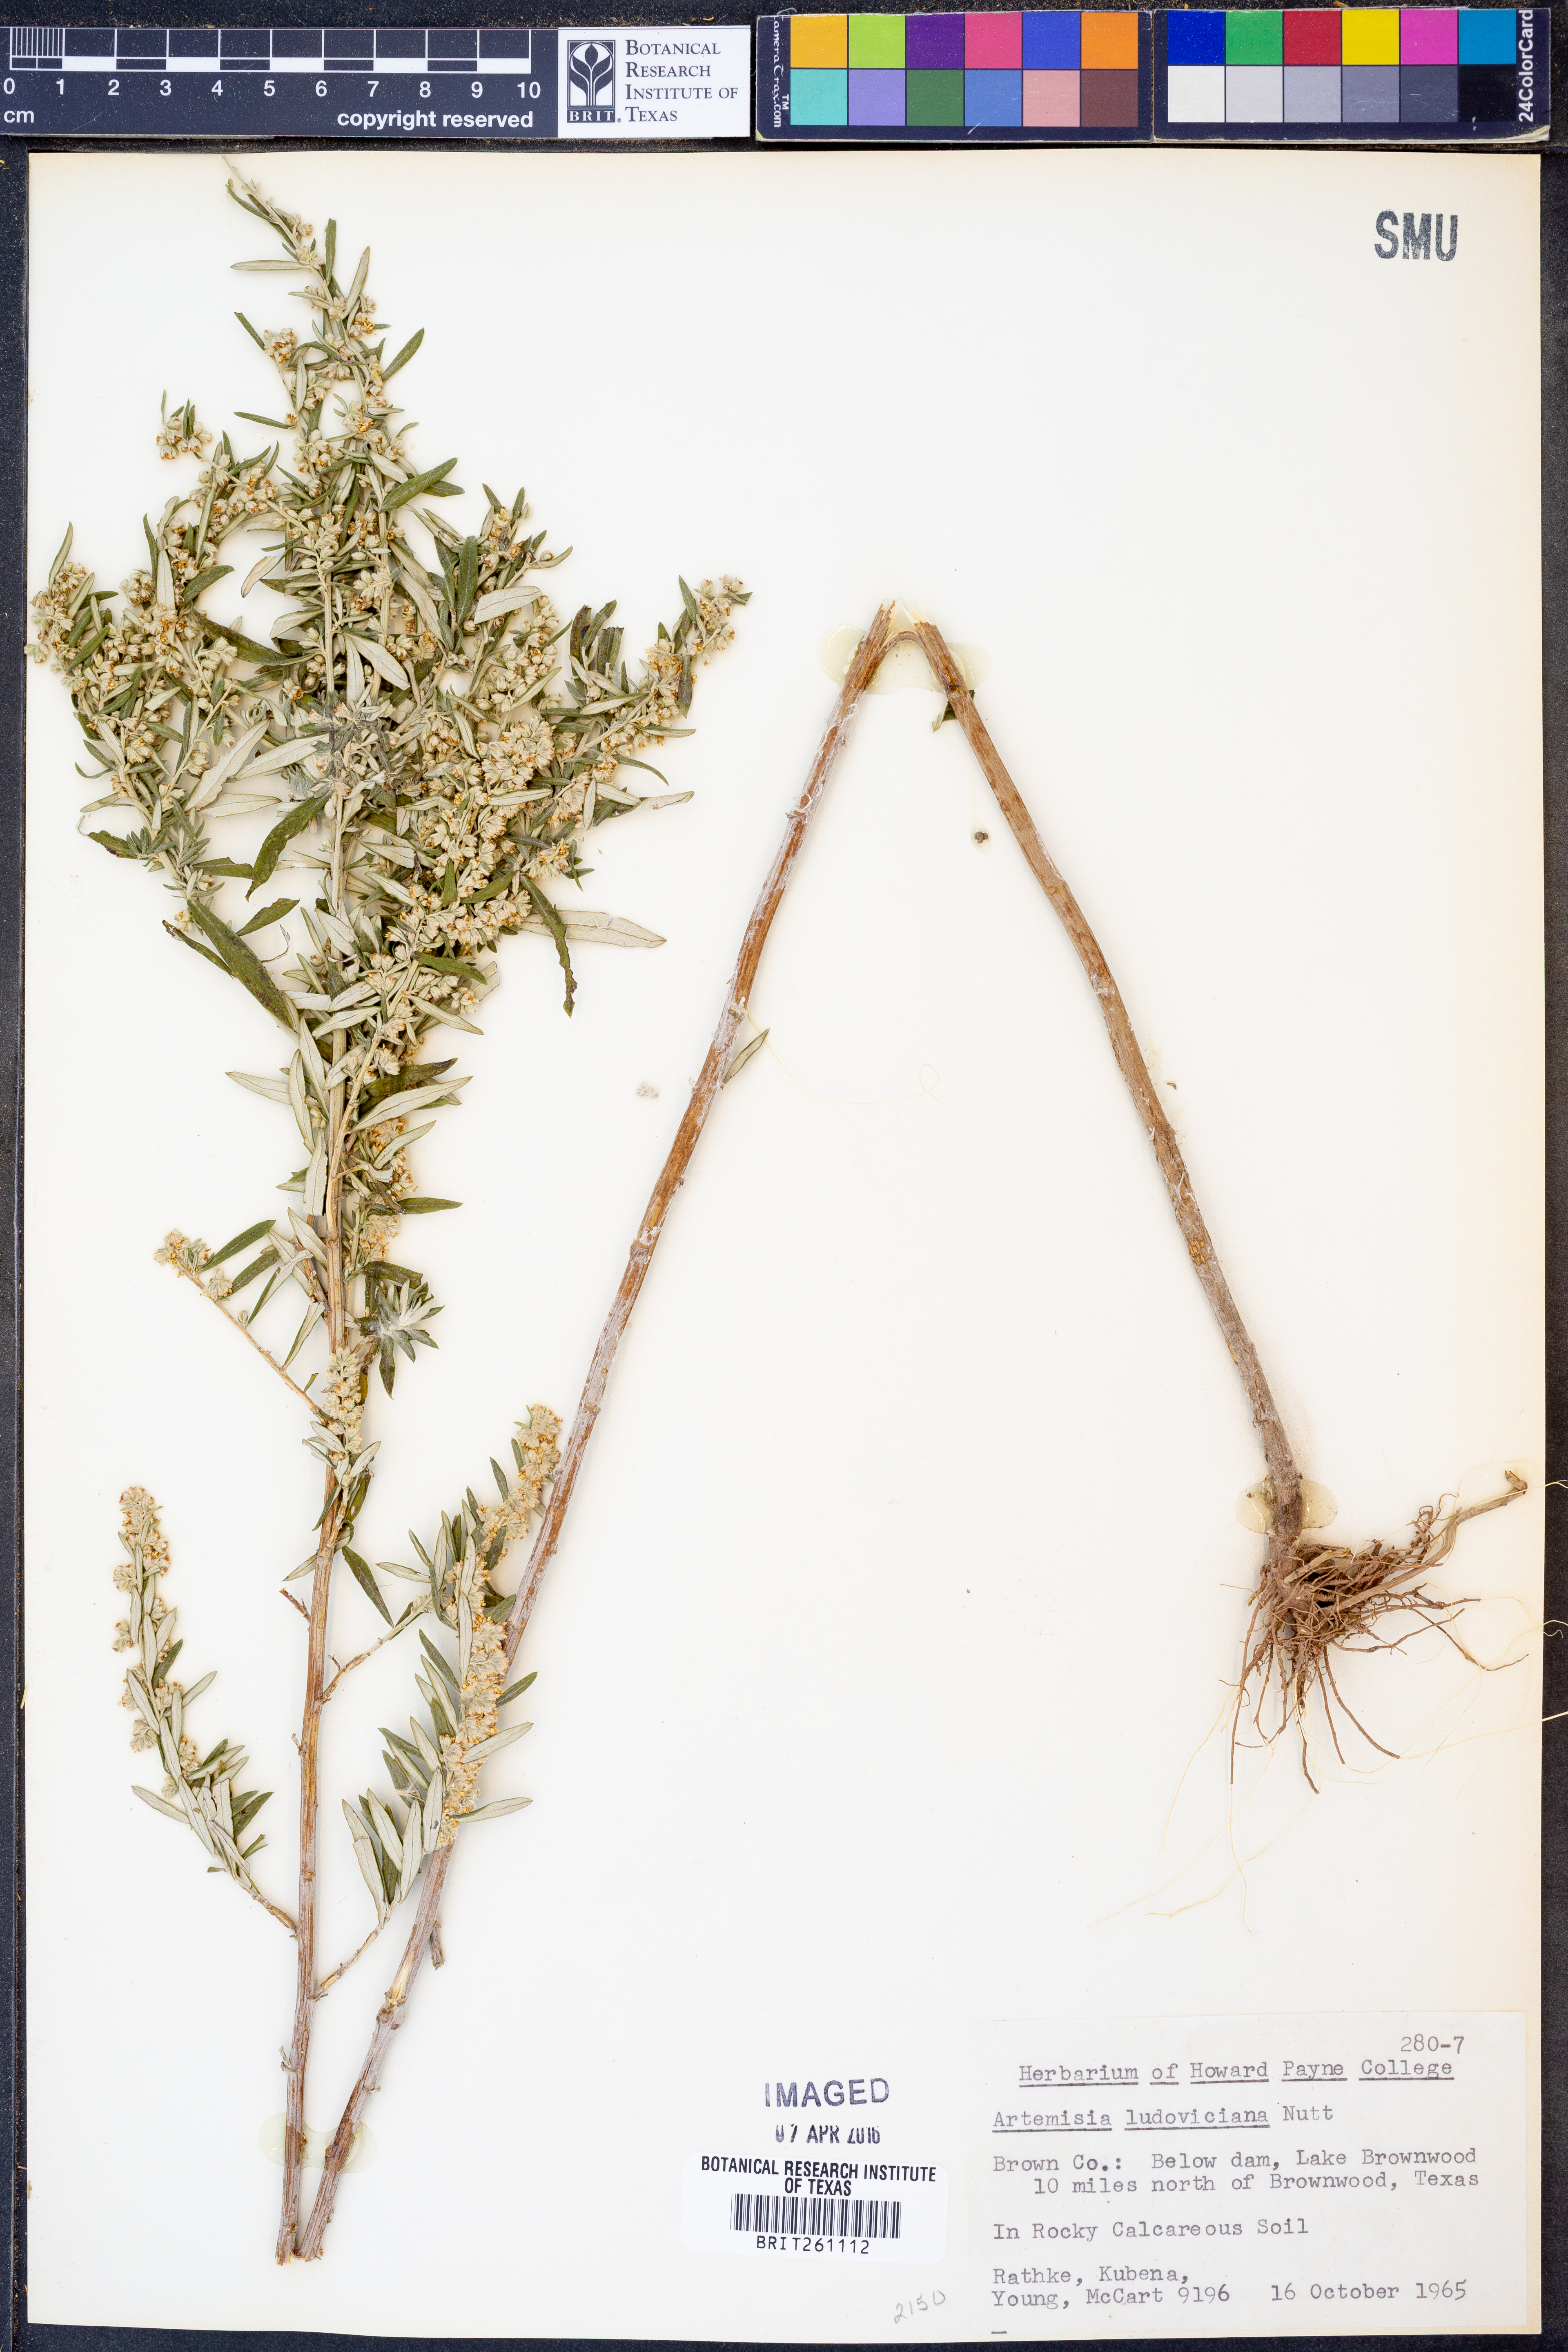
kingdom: Plantae
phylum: Tracheophyta
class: Magnoliopsida
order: Asterales
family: Asteraceae
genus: Artemisia
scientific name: Artemisia ludoviciana
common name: Western mugwort
